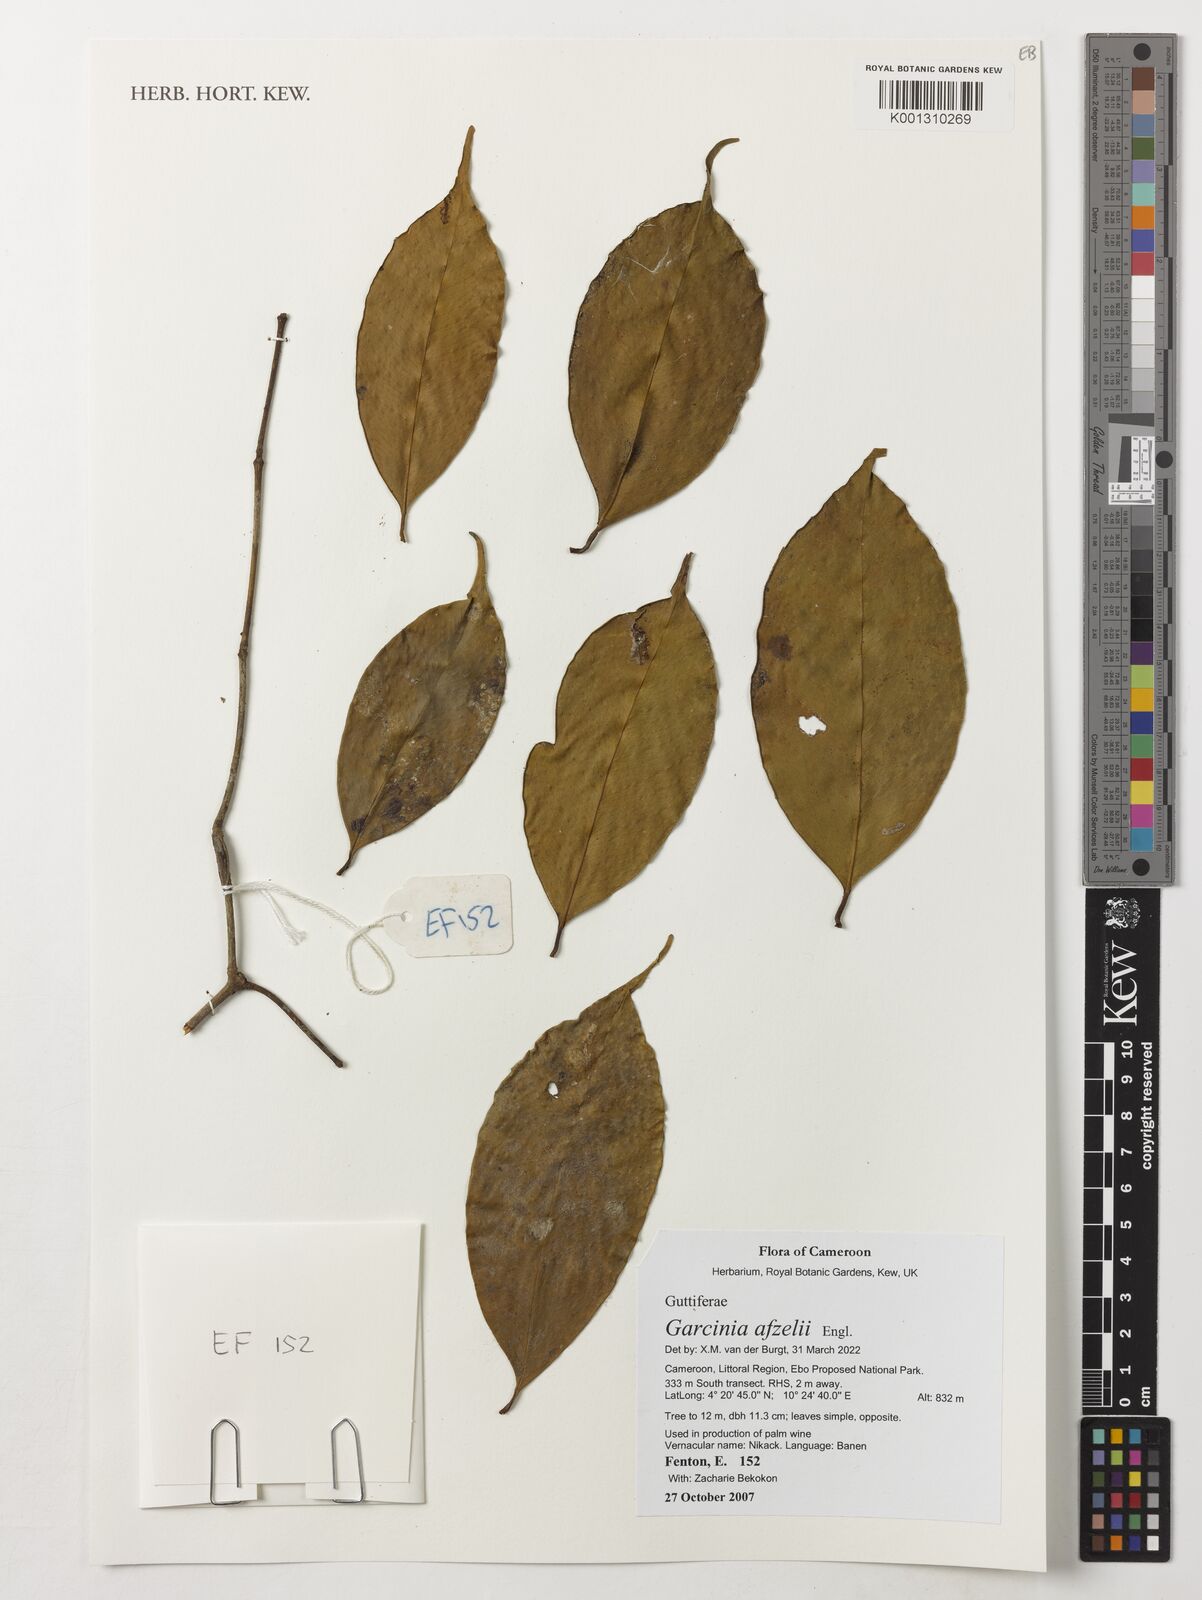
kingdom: Plantae
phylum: Tracheophyta
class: Magnoliopsida
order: Malpighiales
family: Clusiaceae
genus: Garcinia
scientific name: Garcinia afzelii
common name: Bitter-kola
